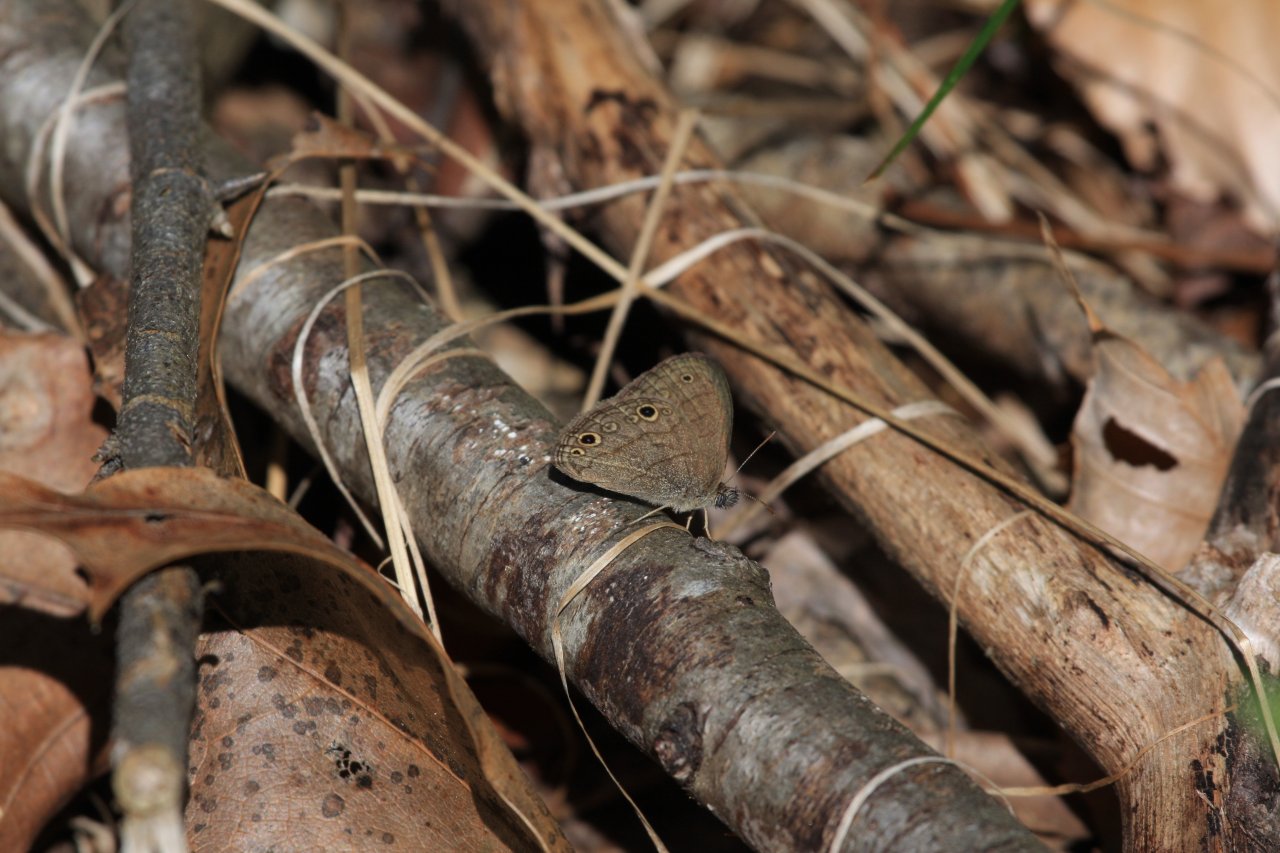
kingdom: Animalia
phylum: Arthropoda
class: Insecta
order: Lepidoptera
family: Nymphalidae
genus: Hermeuptychia
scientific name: Hermeuptychia hermes
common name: Carolina Satyr
